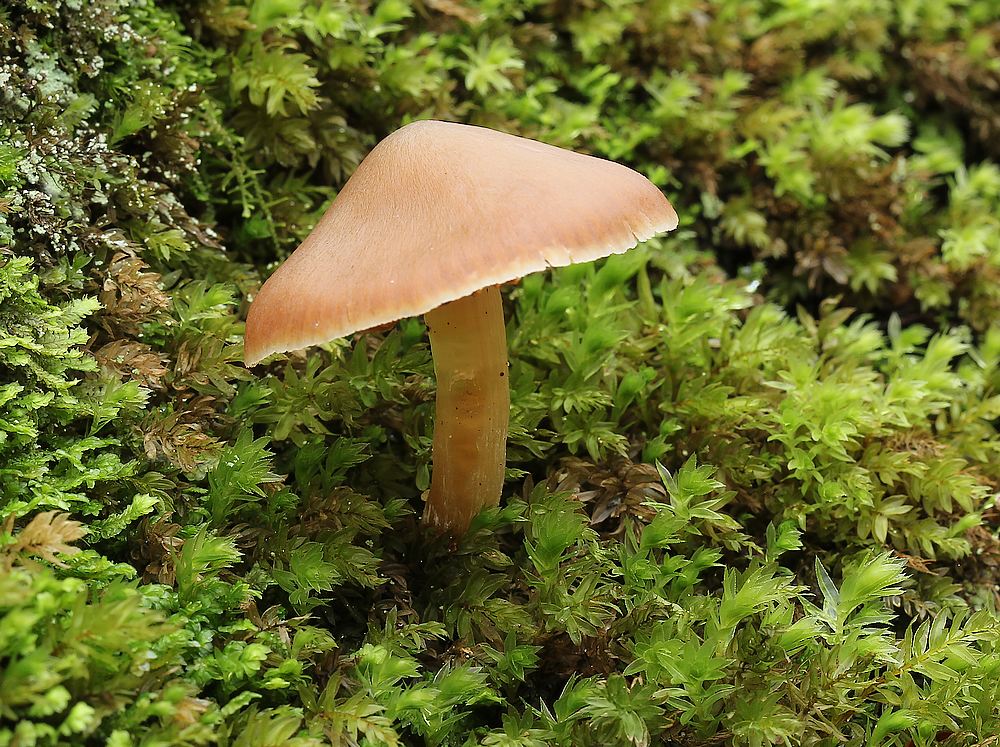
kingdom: Fungi
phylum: Basidiomycota
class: Agaricomycetes
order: Agaricales
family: Cortinariaceae
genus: Cortinarius
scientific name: Cortinarius
